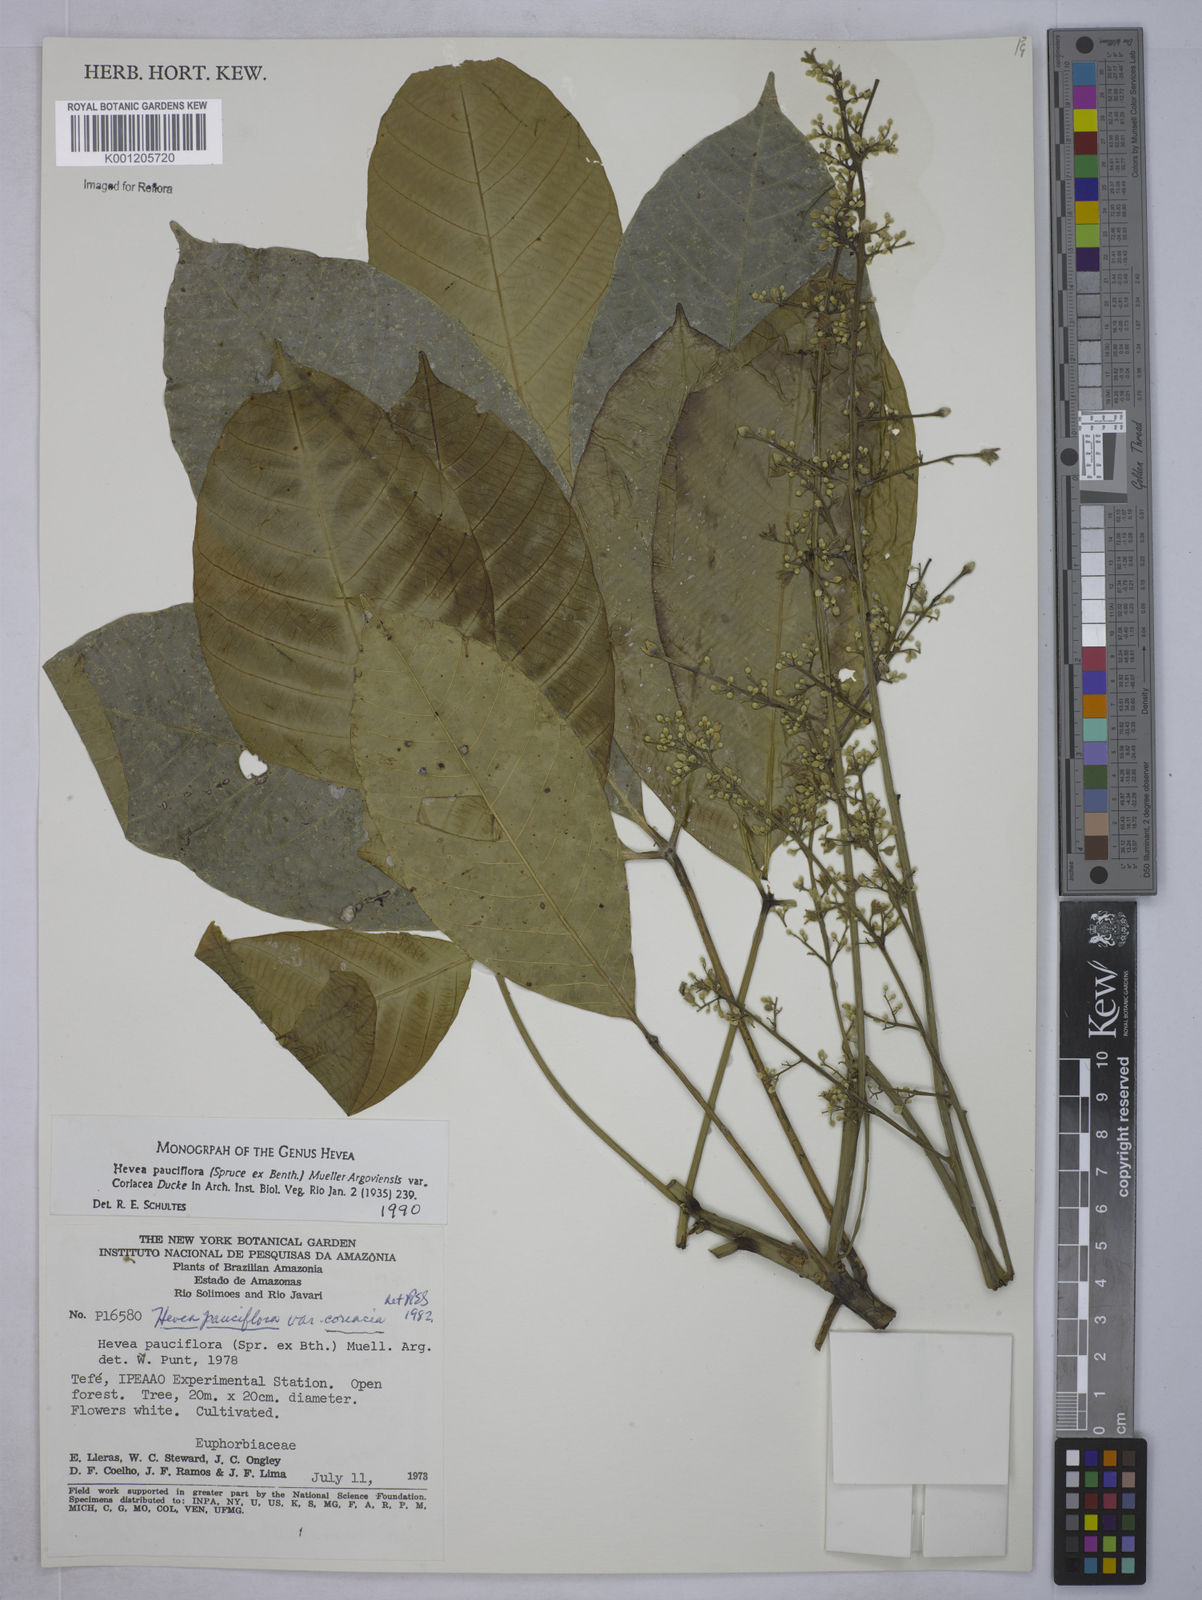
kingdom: Plantae
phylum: Tracheophyta
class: Magnoliopsida
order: Malpighiales
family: Euphorbiaceae
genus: Hevea
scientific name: Hevea
